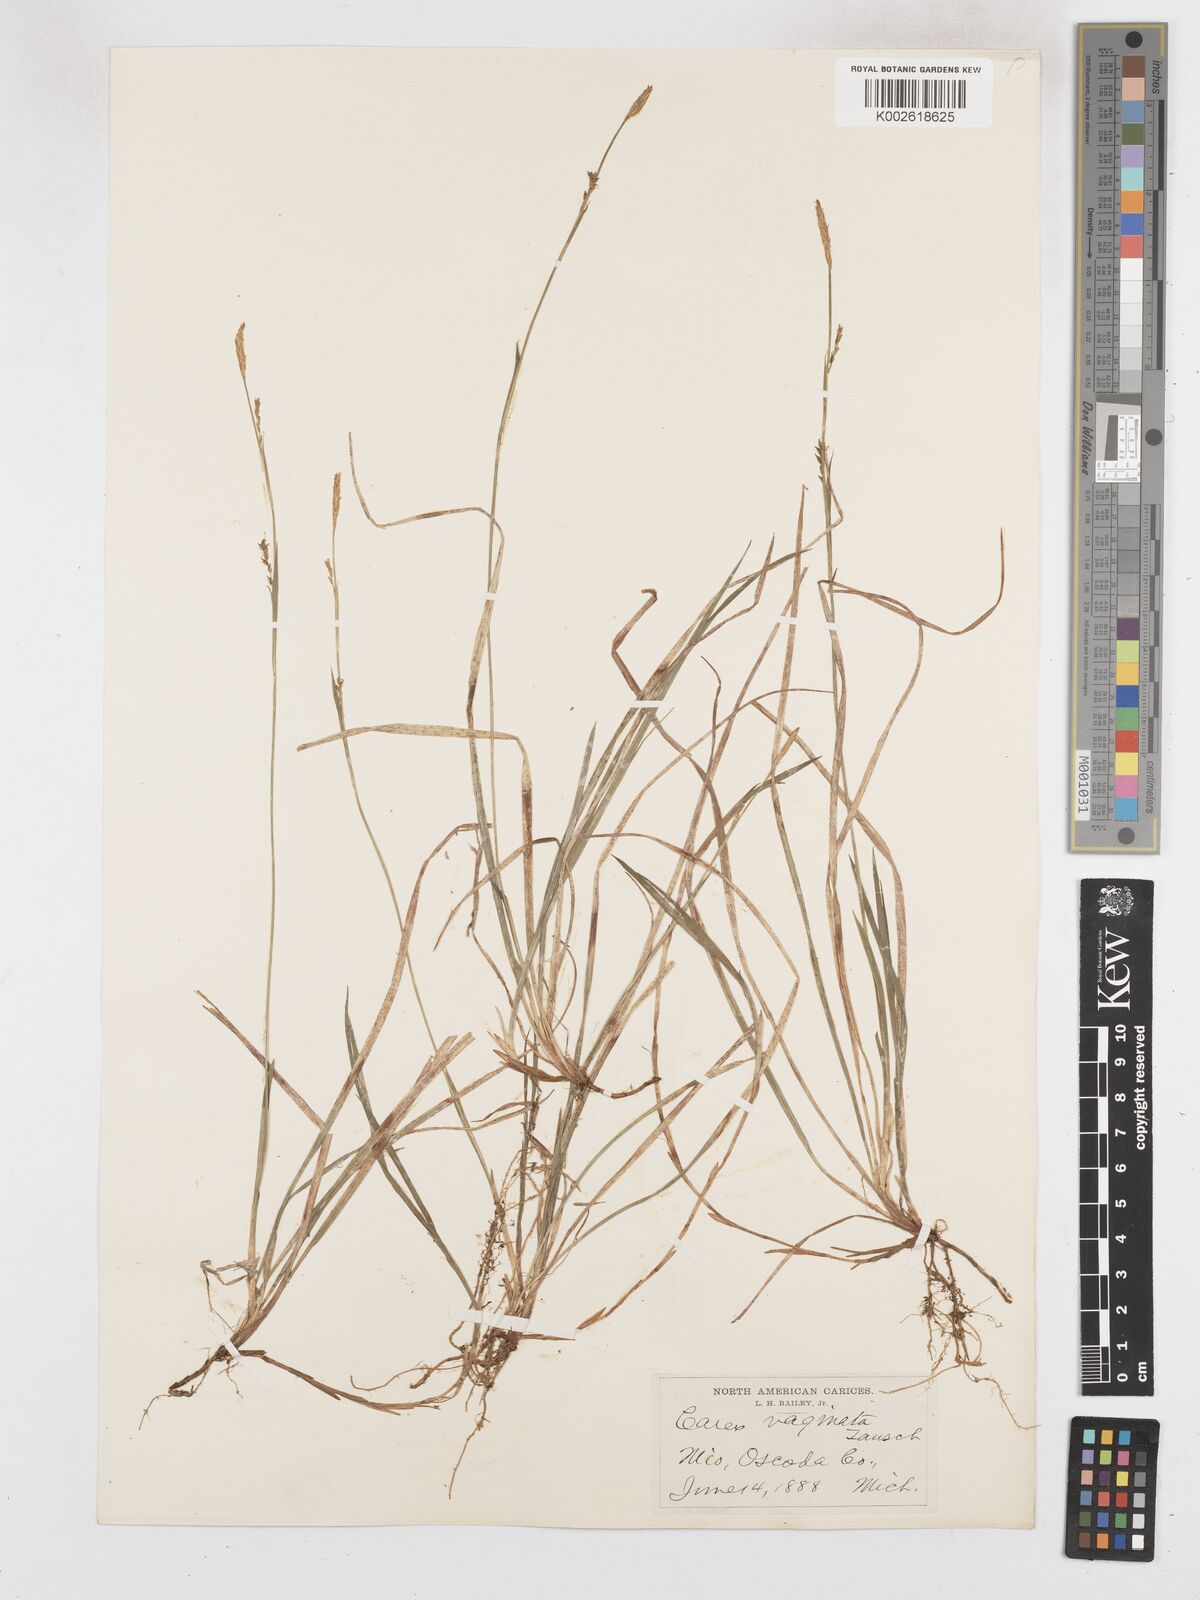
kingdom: Plantae
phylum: Tracheophyta
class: Liliopsida
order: Poales
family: Cyperaceae
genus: Carex
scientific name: Carex vaginata
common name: Sheathed sedge
